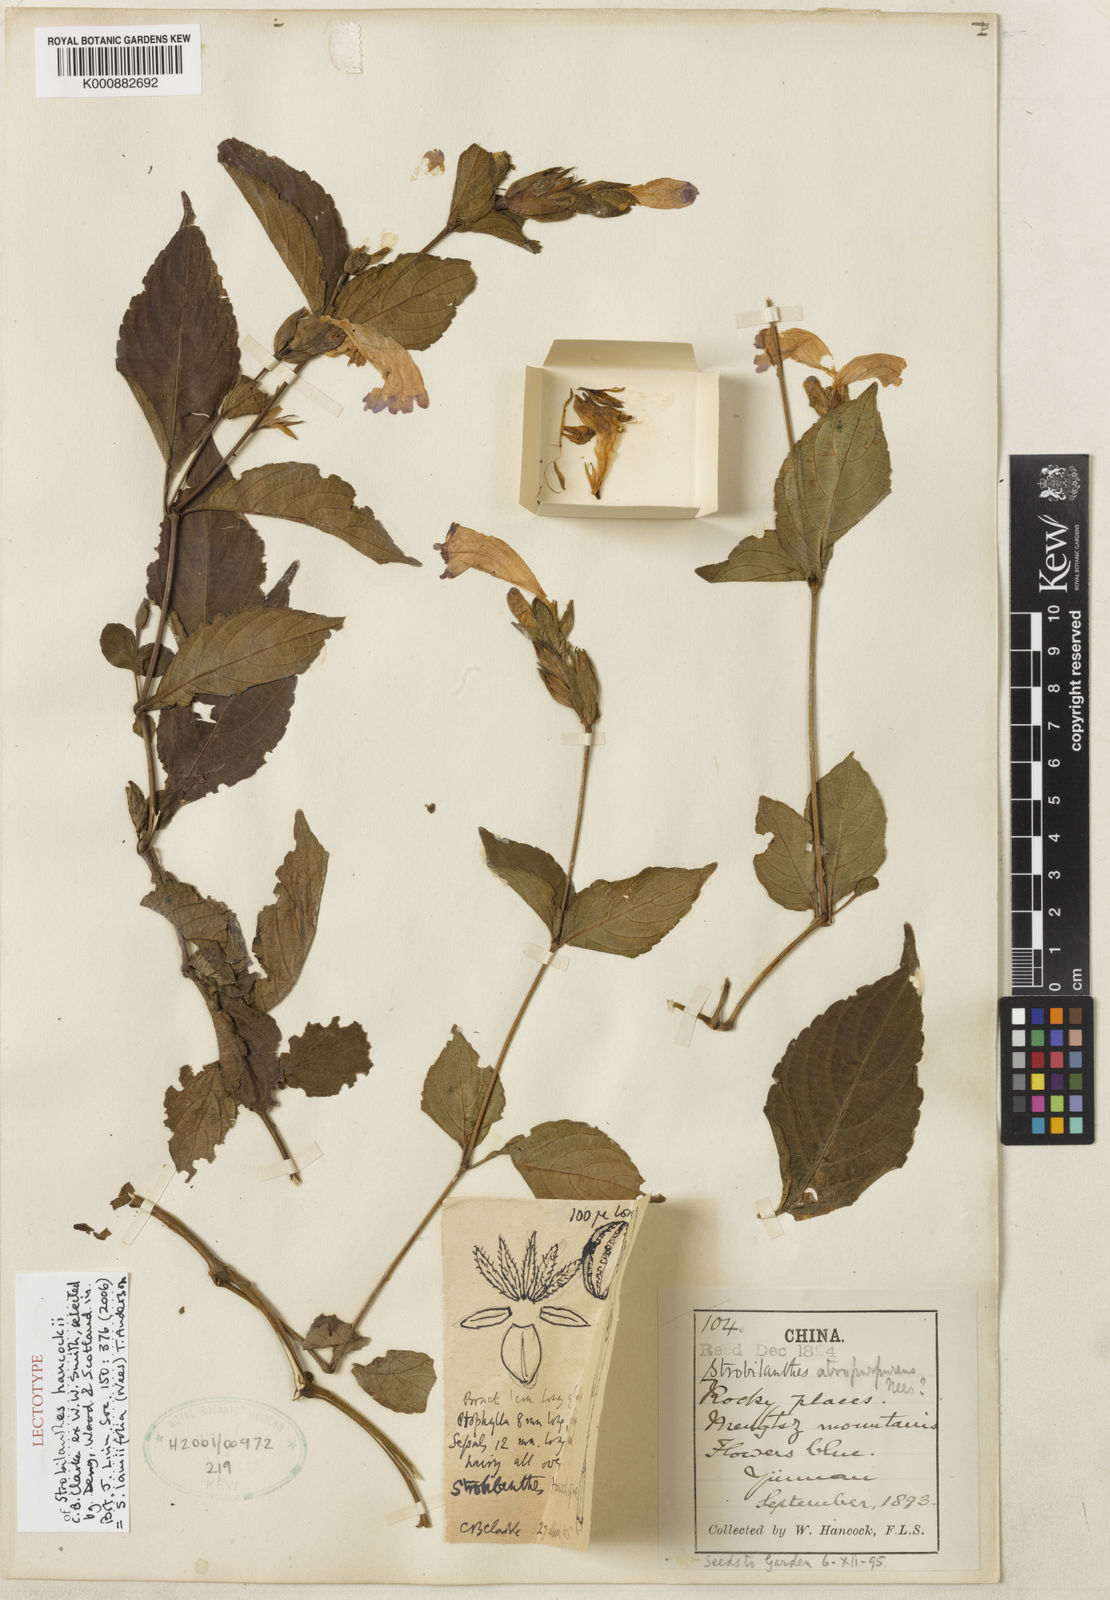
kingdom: Plantae
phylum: Tracheophyta
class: Magnoliopsida
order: Lamiales
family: Acanthaceae
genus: Strobilanthes
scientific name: Strobilanthes lamiifolia
